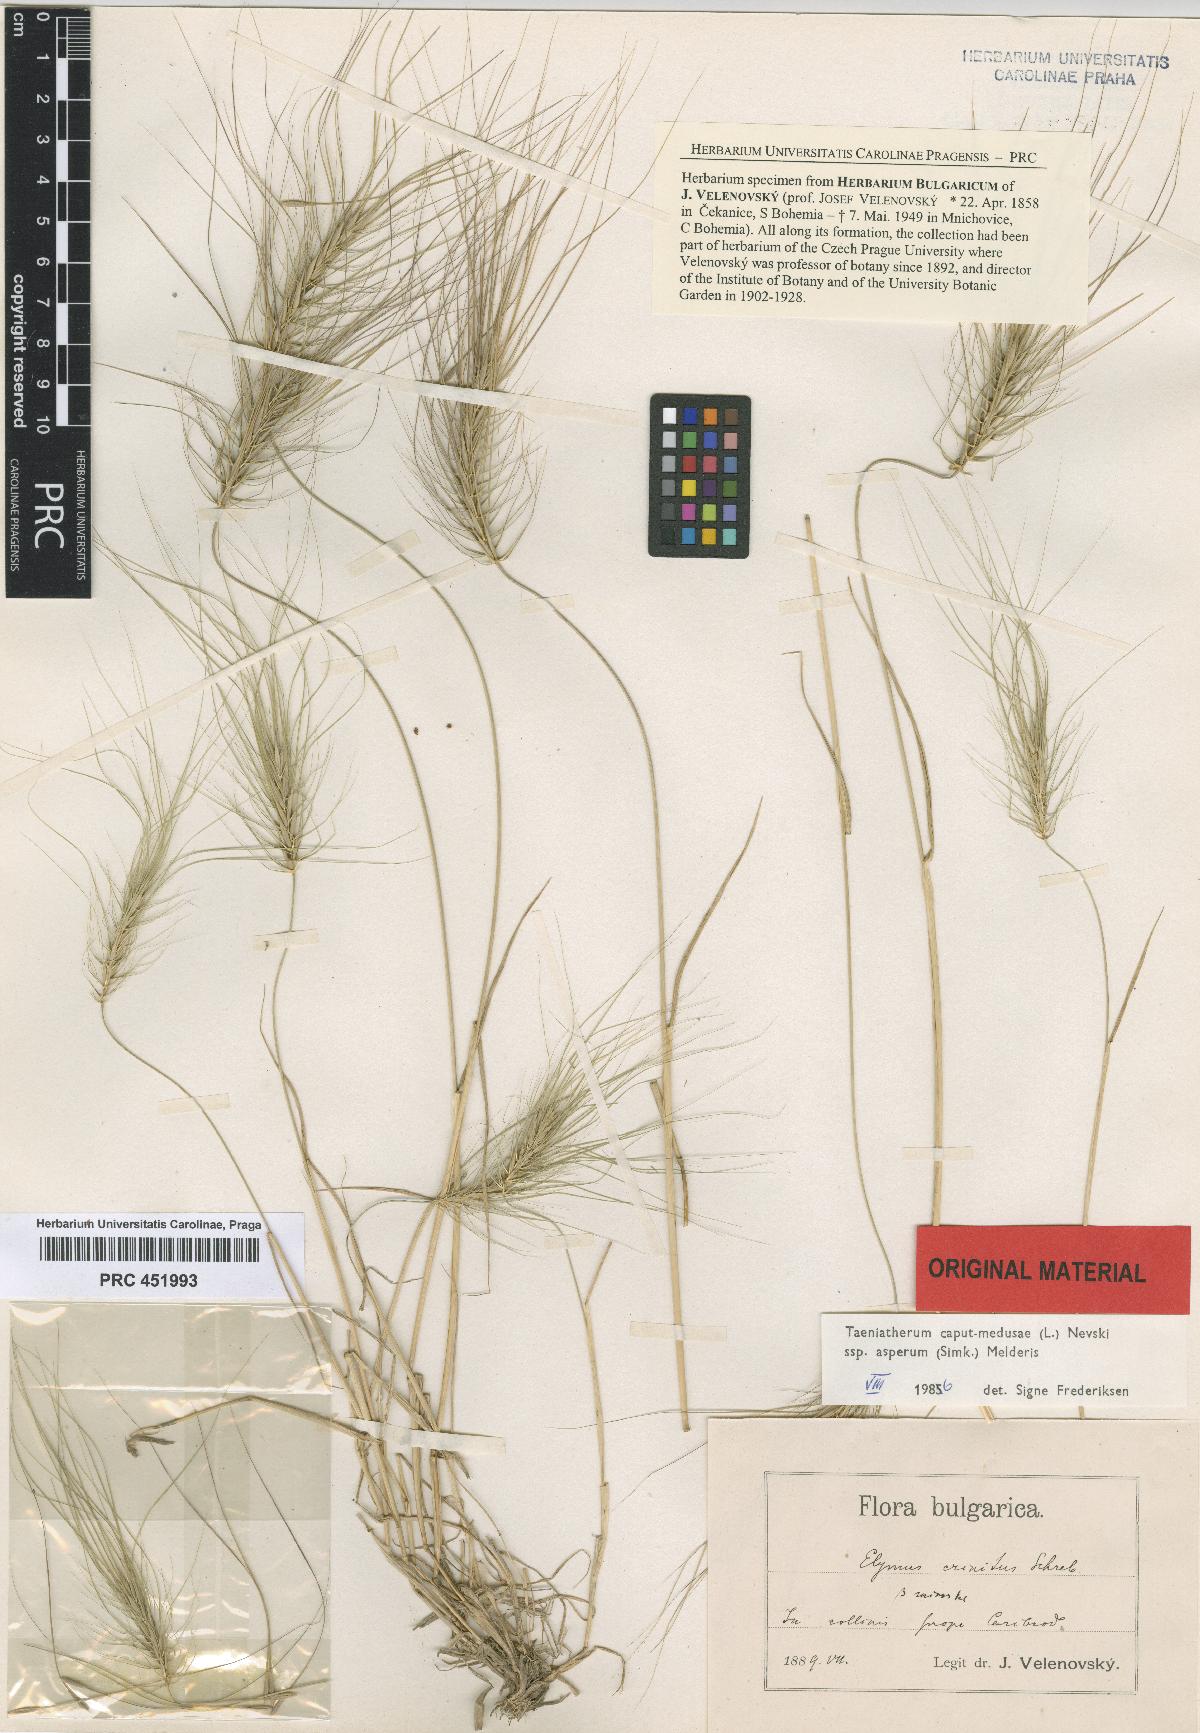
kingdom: Plantae
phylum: Tracheophyta
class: Liliopsida
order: Poales
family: Poaceae
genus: Taeniatherum
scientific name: Taeniatherum caput-medusae
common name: Medusahead
